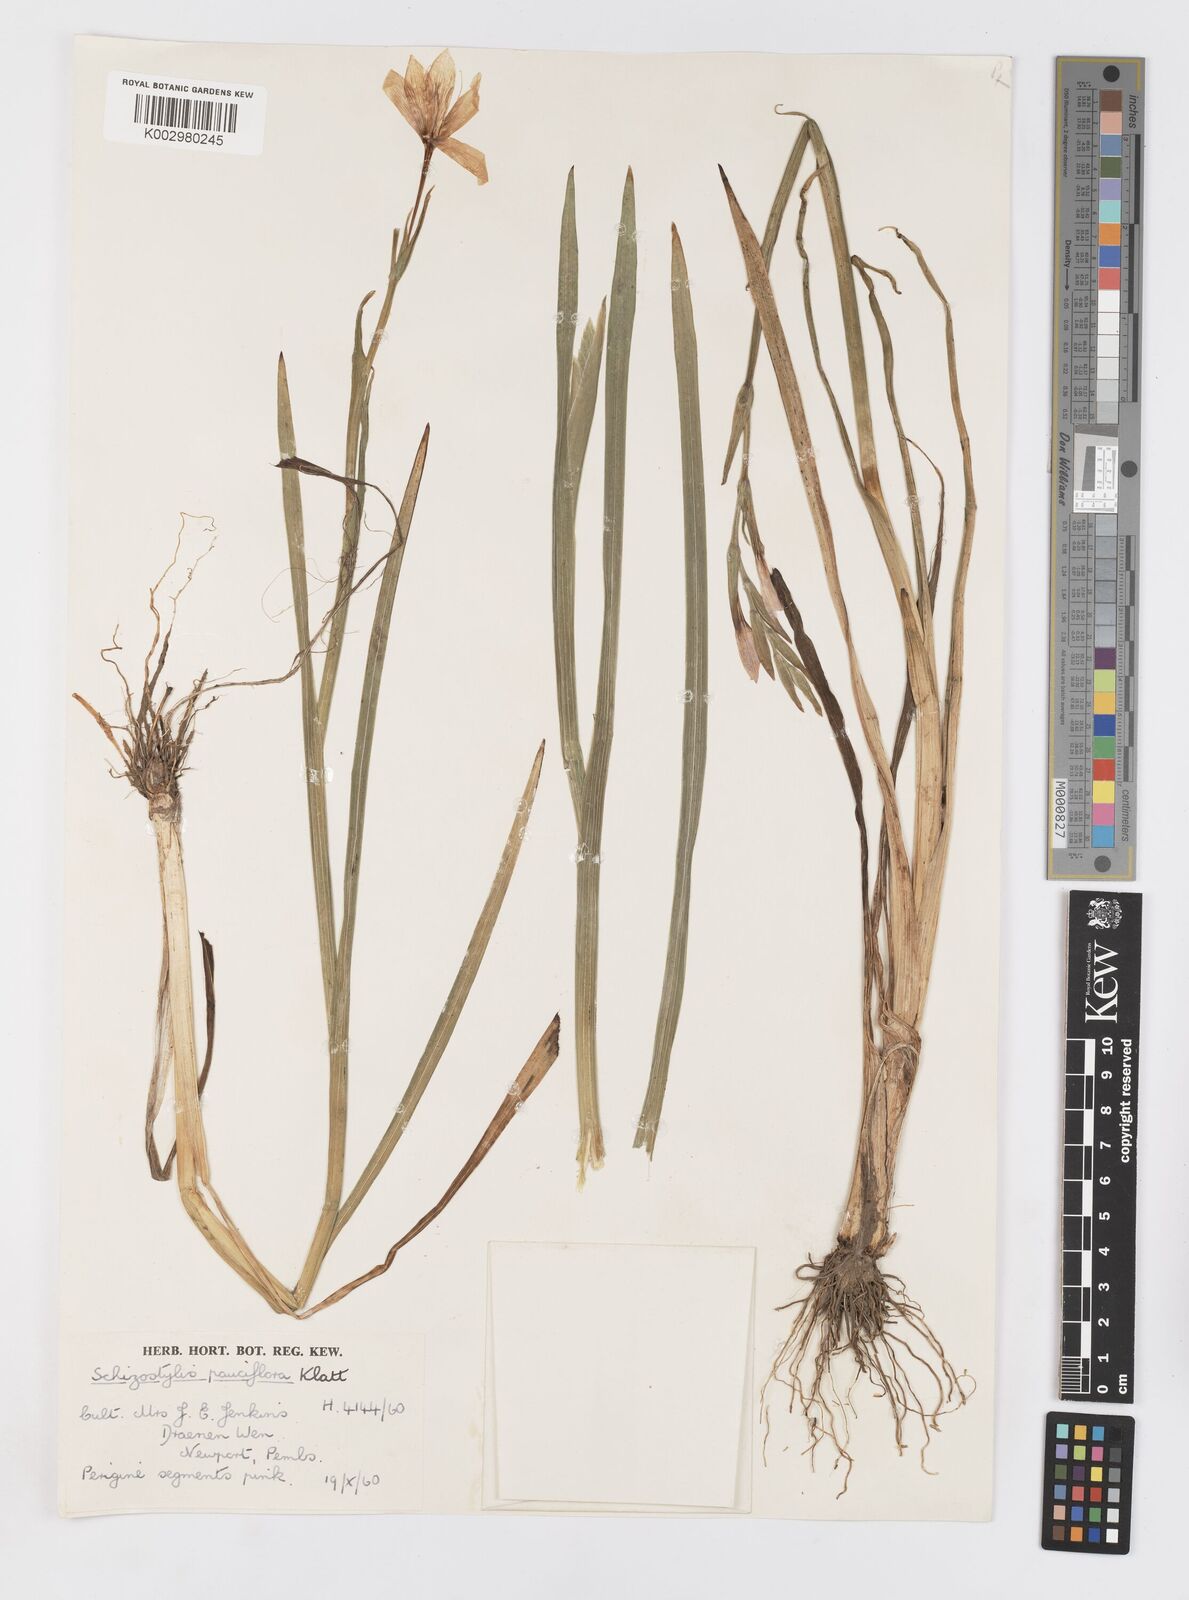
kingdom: Plantae
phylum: Tracheophyta
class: Liliopsida
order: Asparagales
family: Iridaceae
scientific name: Iridaceae
